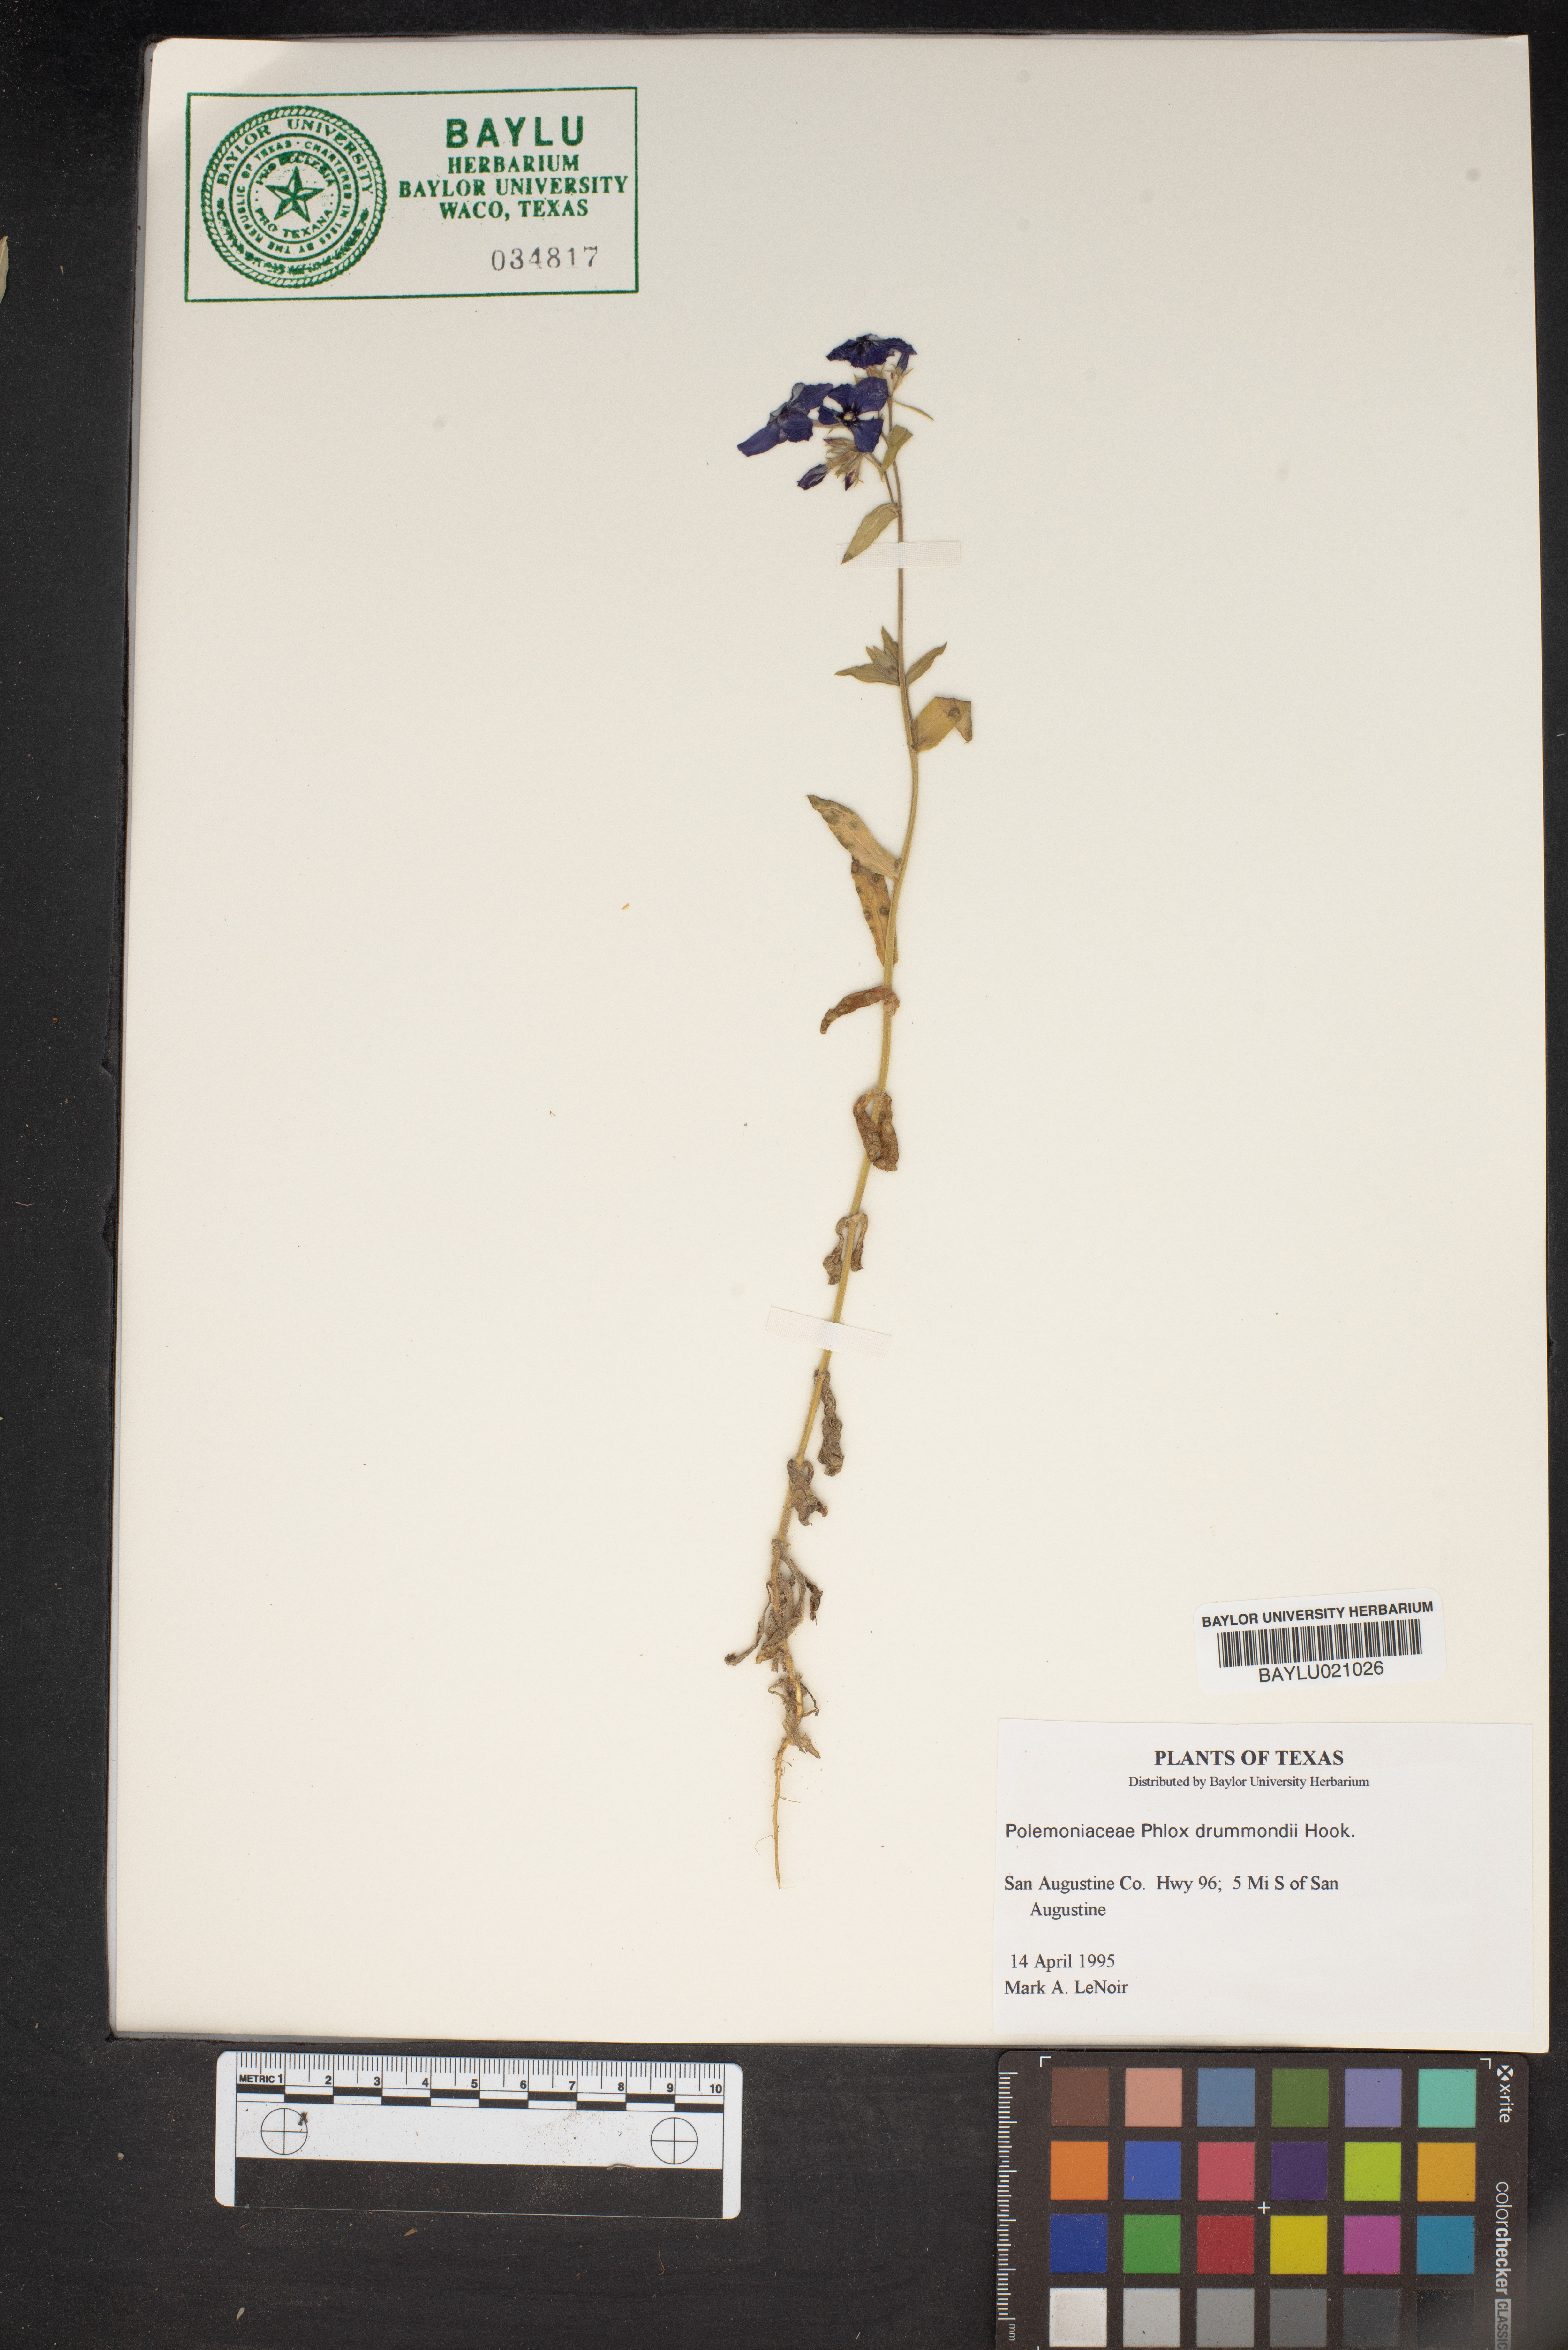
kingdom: Plantae
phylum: Tracheophyta
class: Magnoliopsida
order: Ericales
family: Polemoniaceae
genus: Phlox
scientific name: Phlox drummondii
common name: Drummond's phlox
